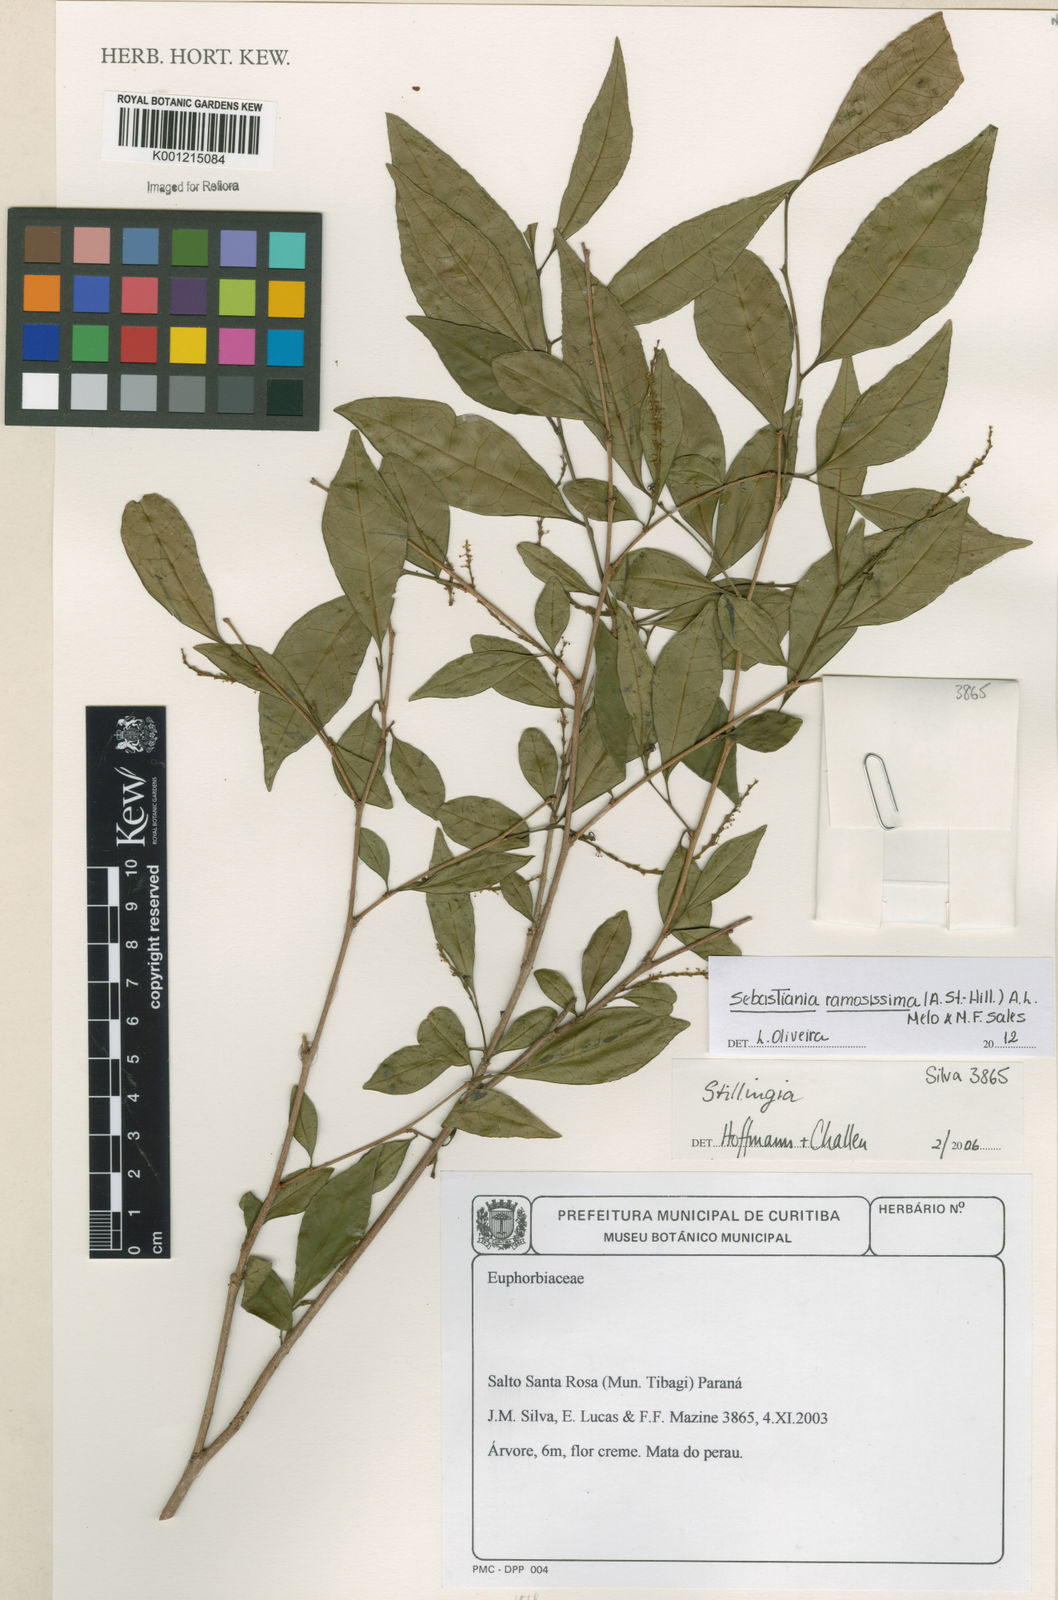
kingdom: Plantae
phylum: Tracheophyta
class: Magnoliopsida
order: Malpighiales
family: Euphorbiaceae
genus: Sebastiania
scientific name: Sebastiania
